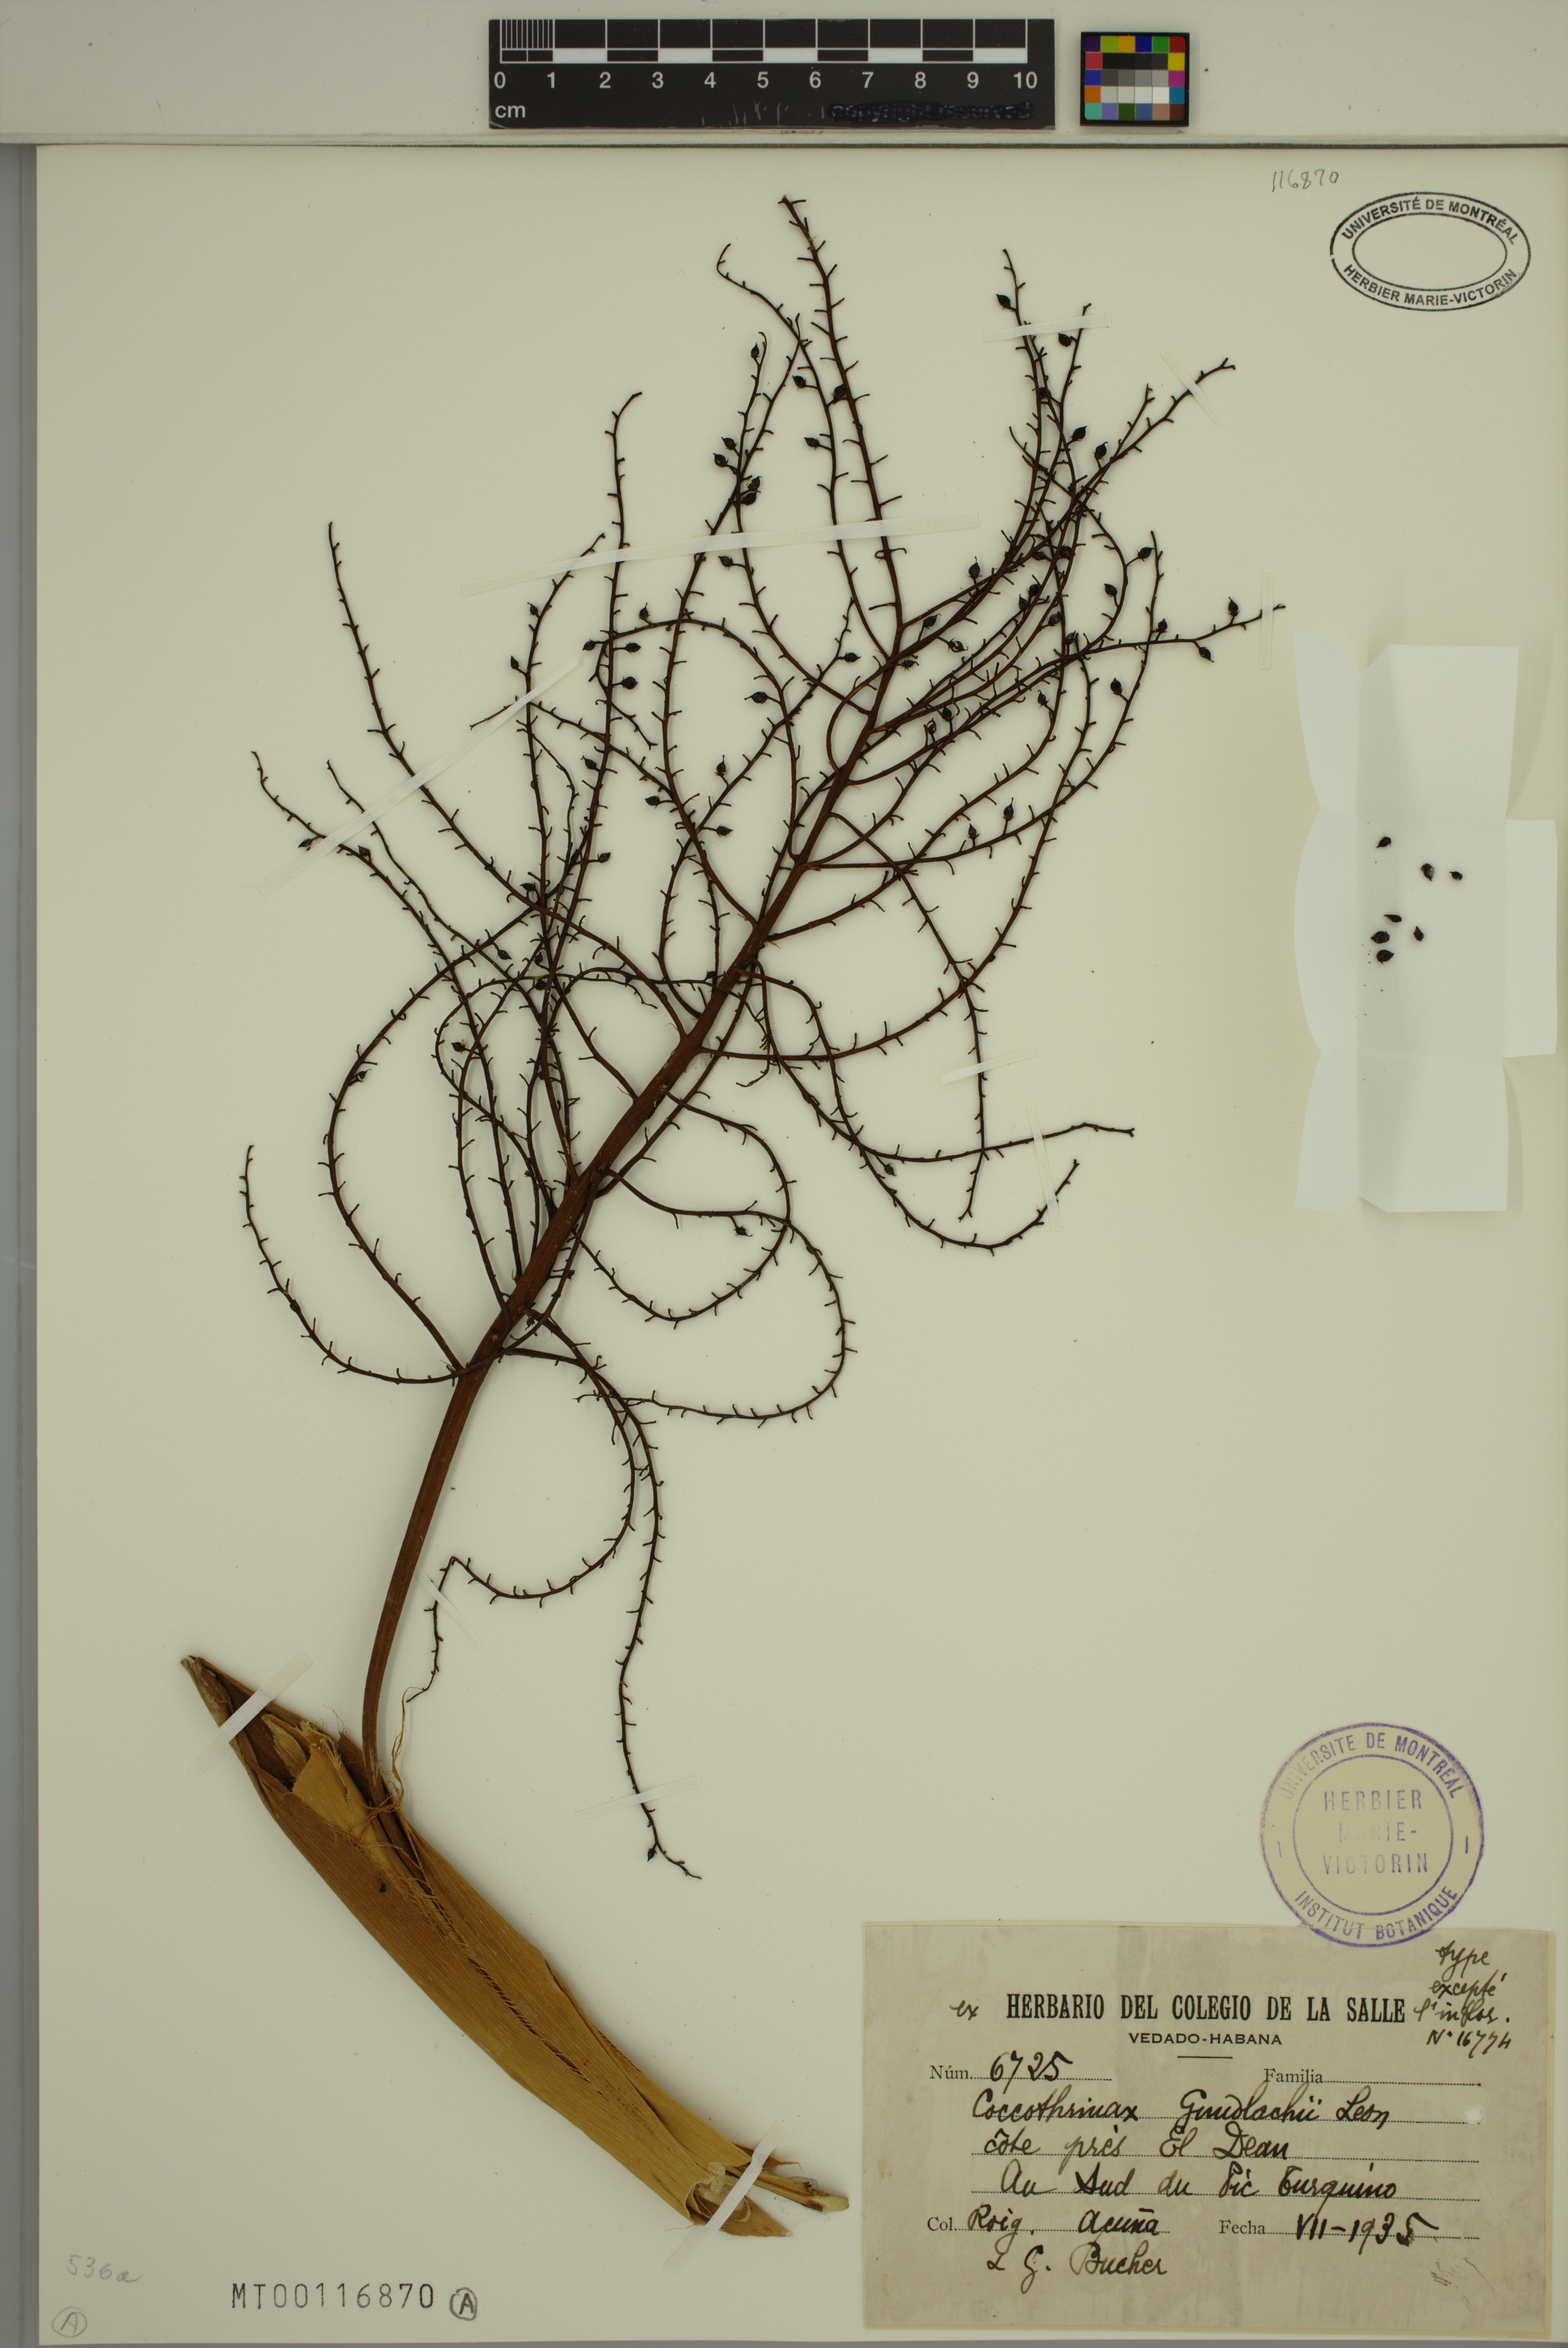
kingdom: Plantae
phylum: Tracheophyta
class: Liliopsida
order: Arecales
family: Arecaceae
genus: Coccothrinax
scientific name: Coccothrinax gundlachii
